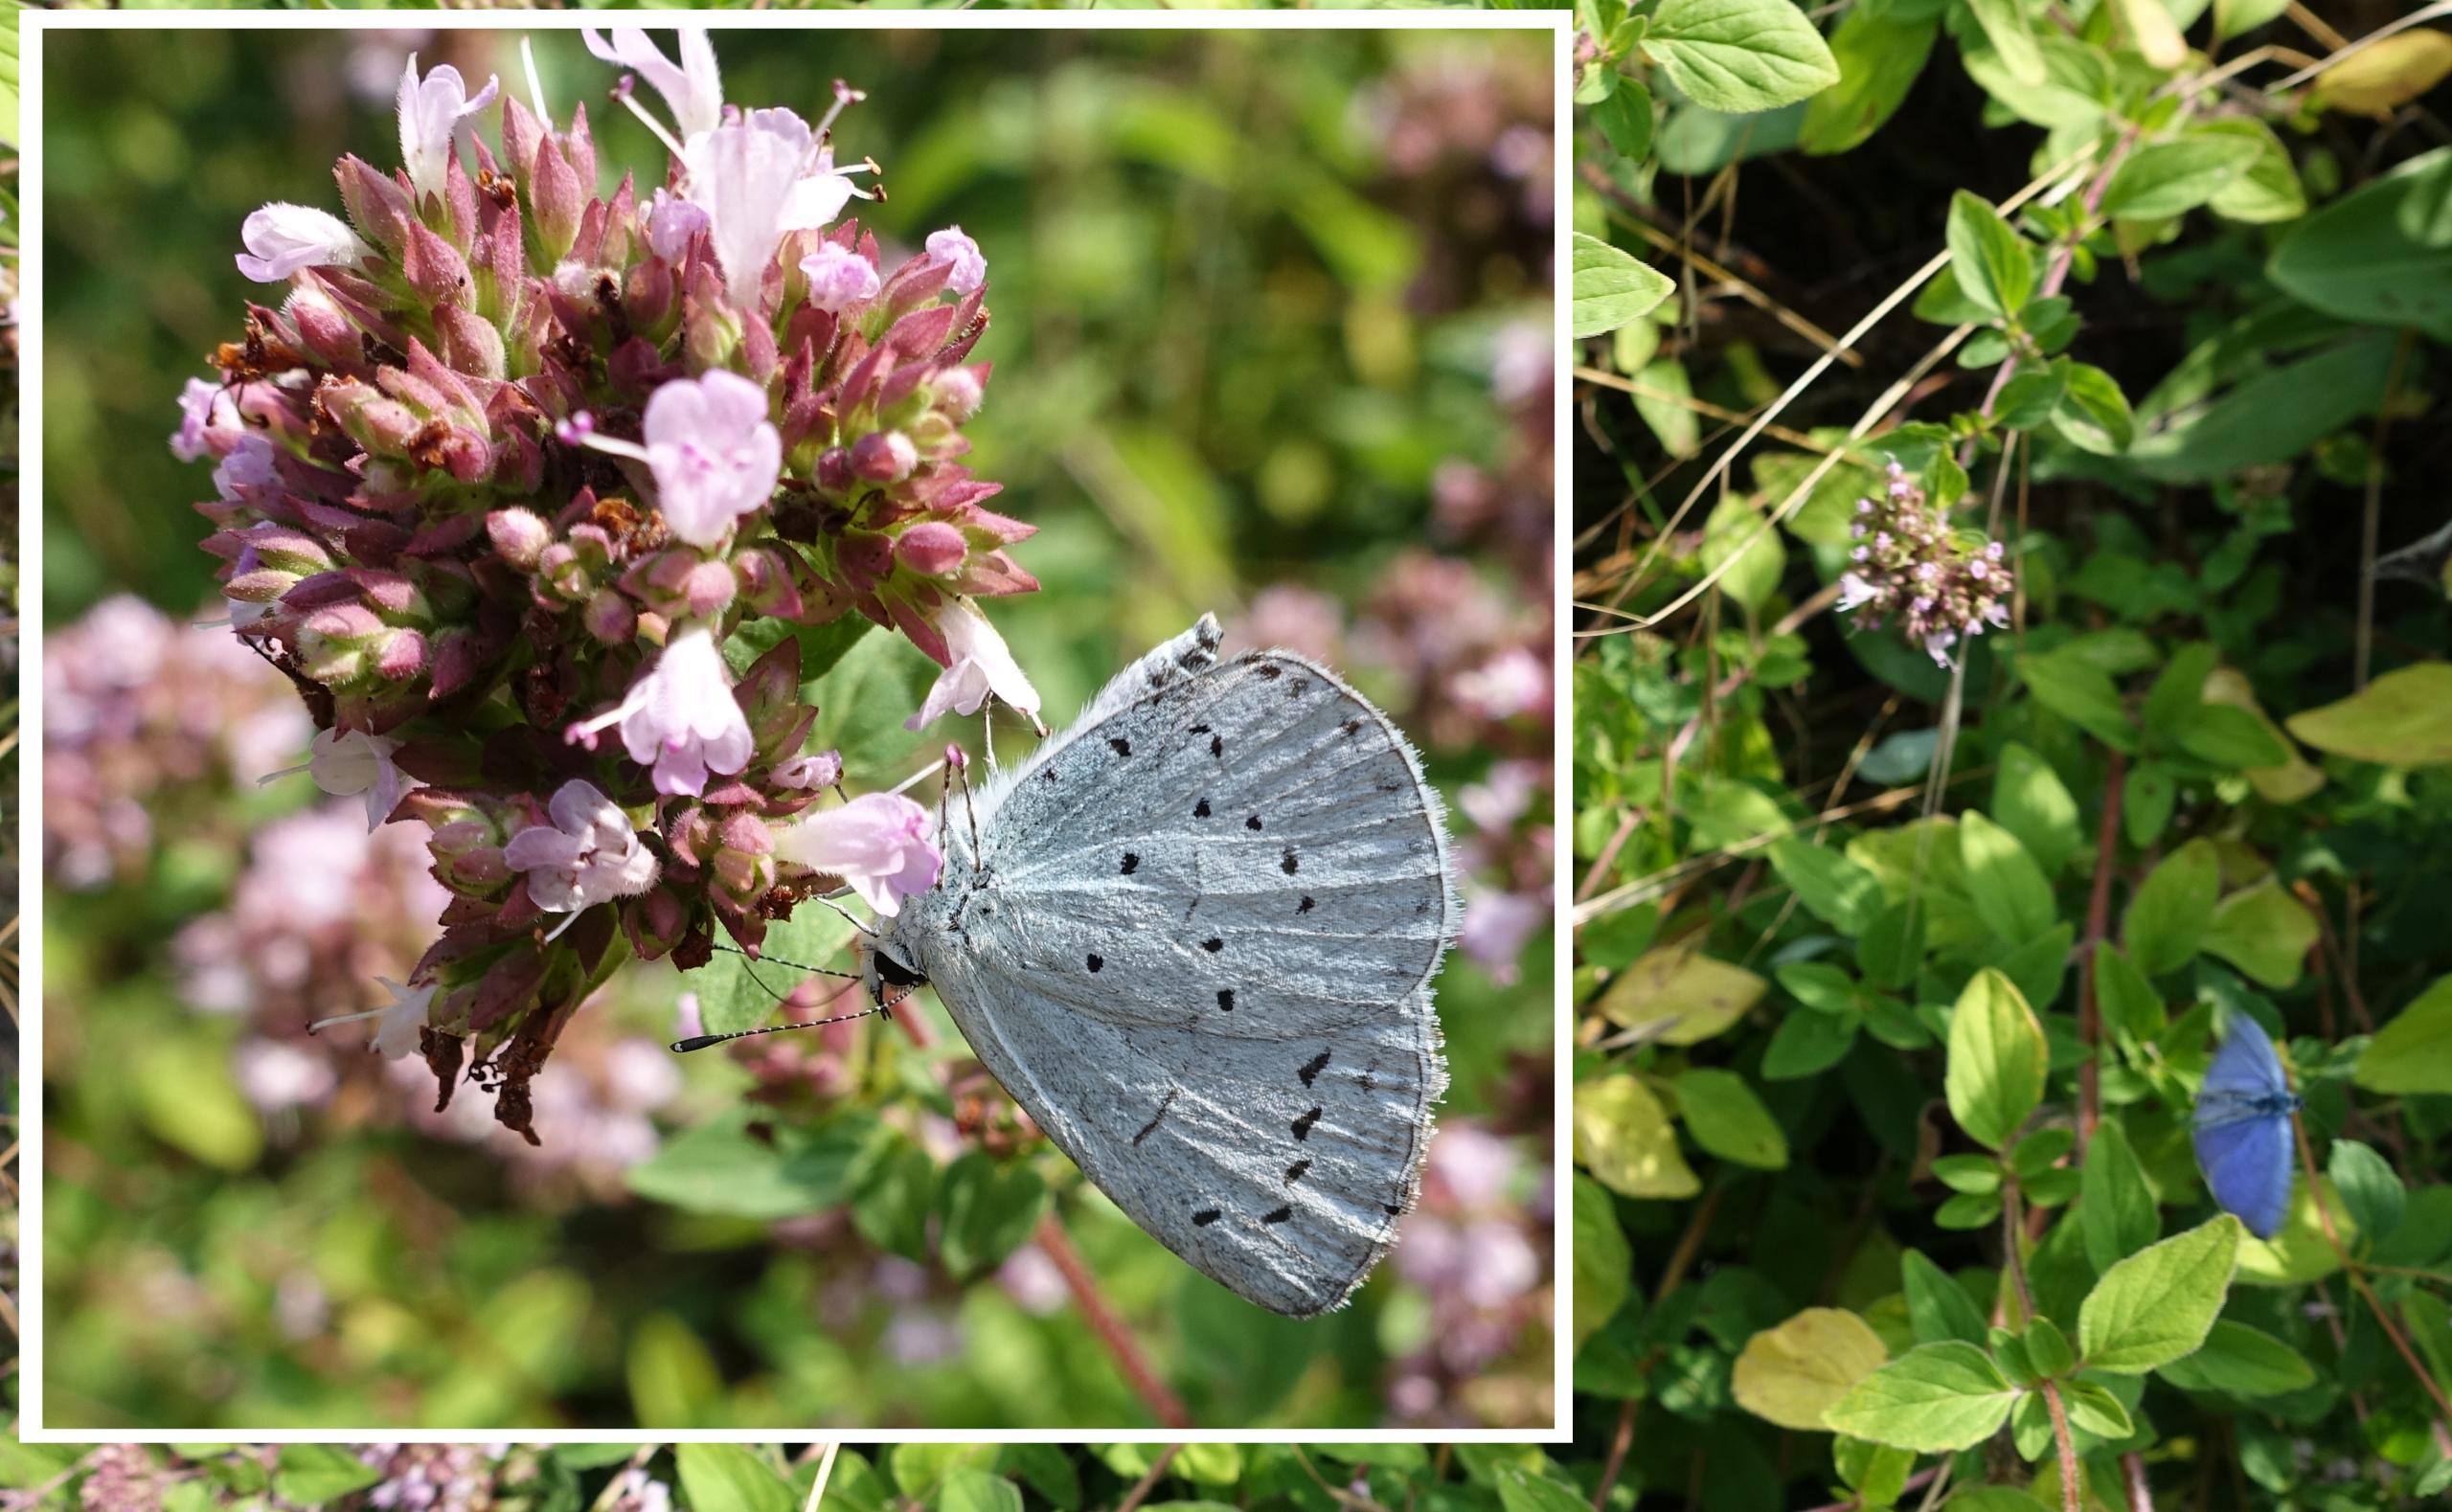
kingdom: Animalia
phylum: Arthropoda
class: Insecta
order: Lepidoptera
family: Lycaenidae
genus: Celastrina
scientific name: Celastrina argiolus
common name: Skovblåfugl
